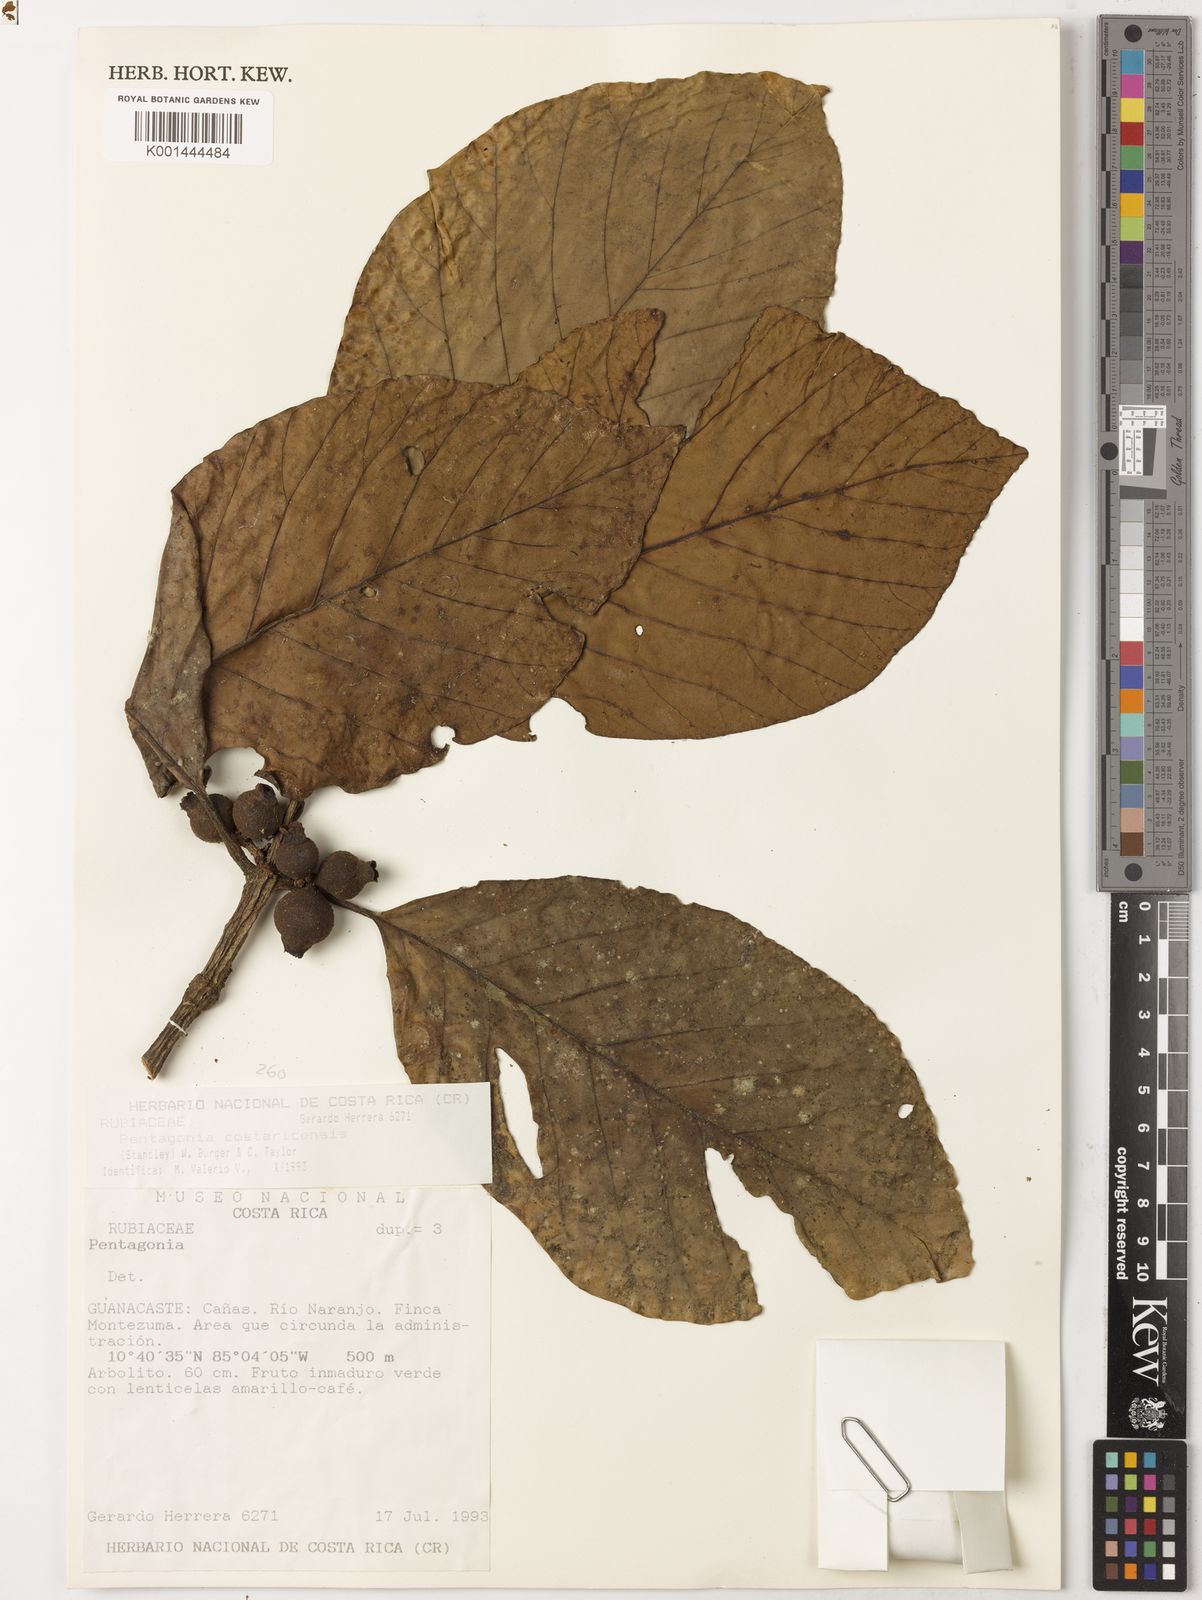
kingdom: Plantae
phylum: Tracheophyta
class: Magnoliopsida
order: Gentianales
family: Rubiaceae
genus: Pentagonia
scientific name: Pentagonia costaricensis
